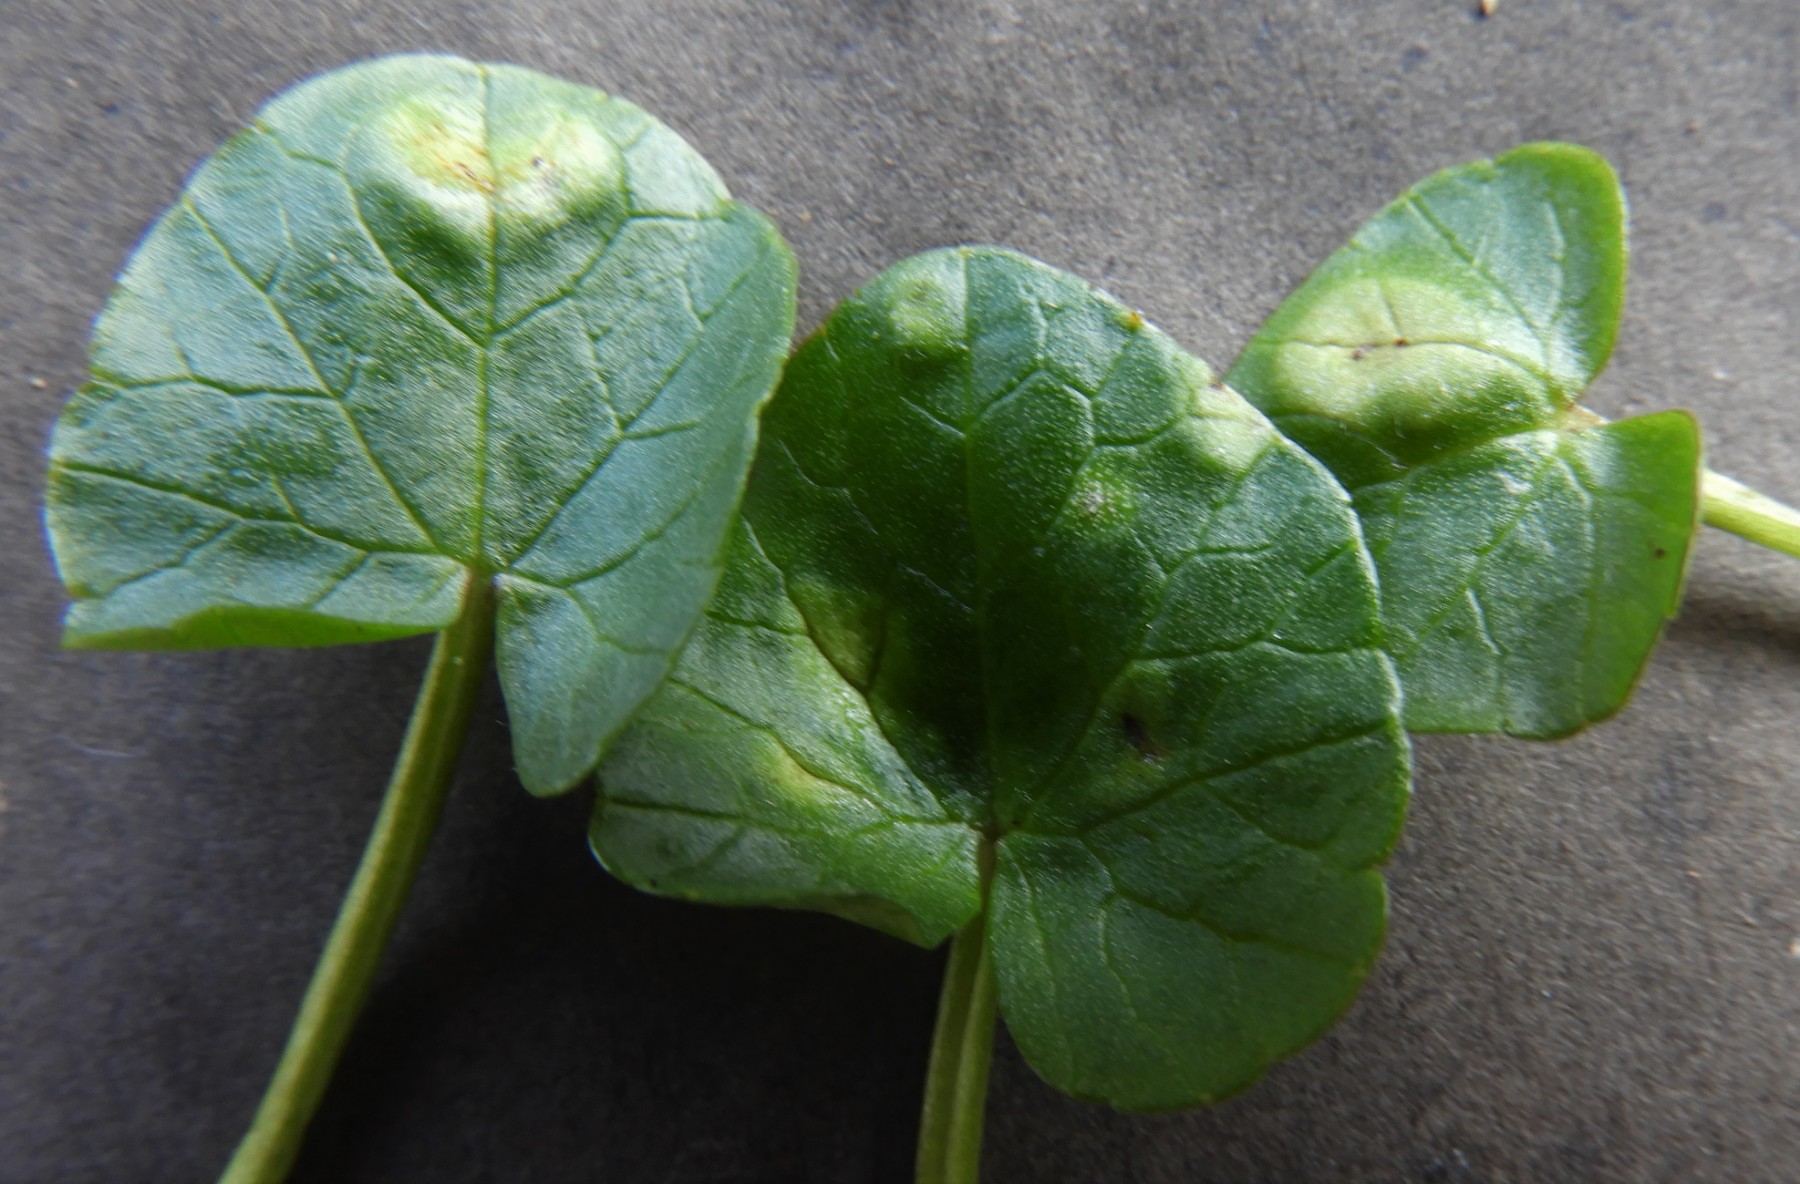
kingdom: Fungi
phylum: Basidiomycota
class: Pucciniomycetes
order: Pucciniales
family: Pucciniaceae
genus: Uromyces
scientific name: Uromyces ficariae
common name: vorterod-encellerust
